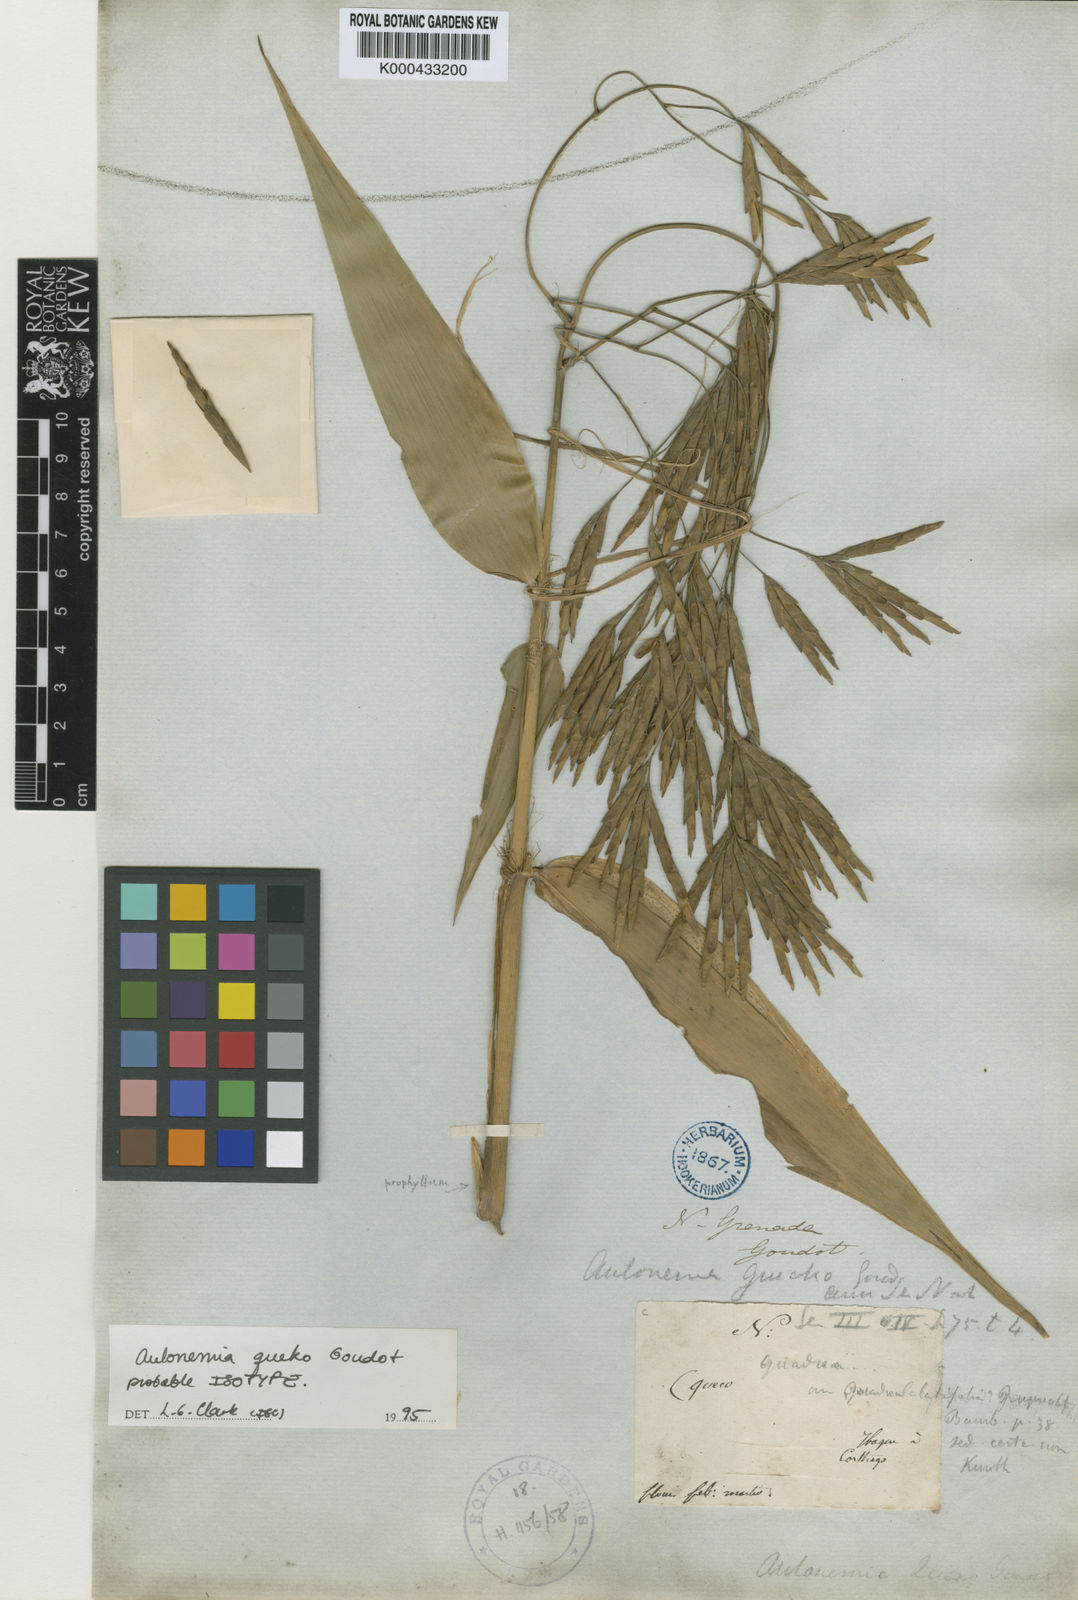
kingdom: Plantae
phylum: Tracheophyta
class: Liliopsida
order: Poales
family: Poaceae
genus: Aulonemia
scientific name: Aulonemia queko
